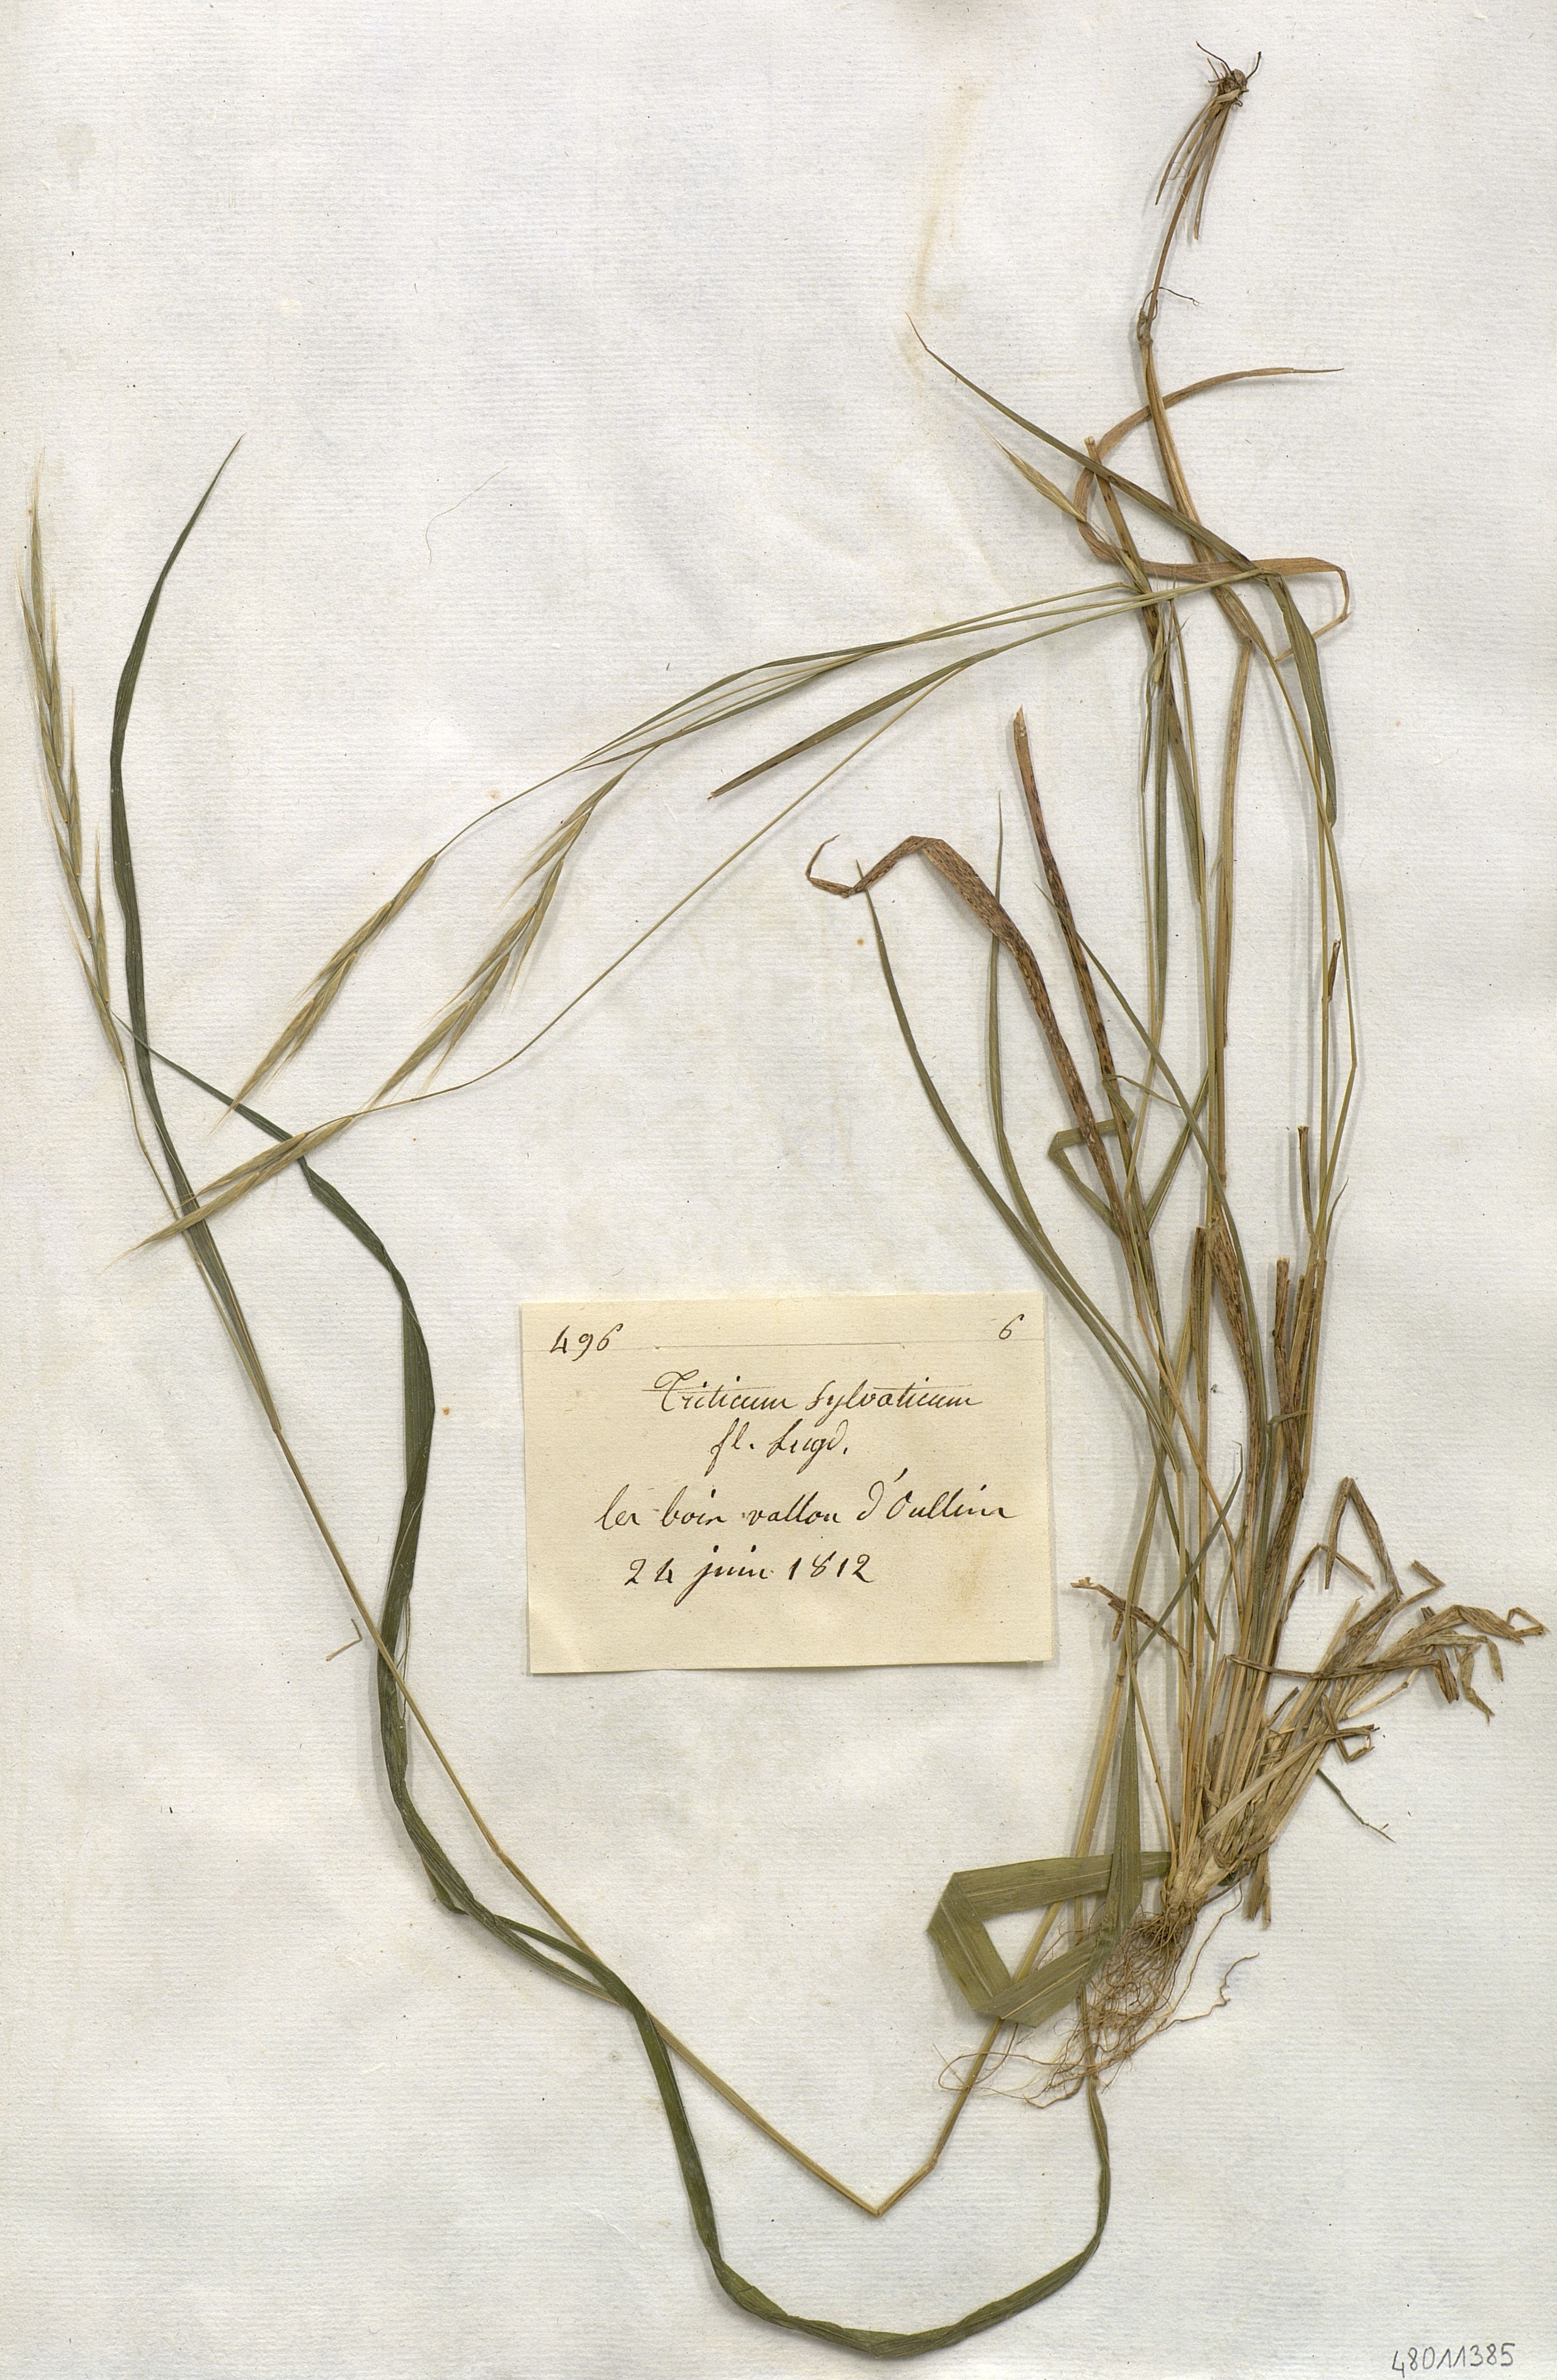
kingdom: Plantae
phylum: Tracheophyta
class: Liliopsida
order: Poales
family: Poaceae
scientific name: Poaceae
